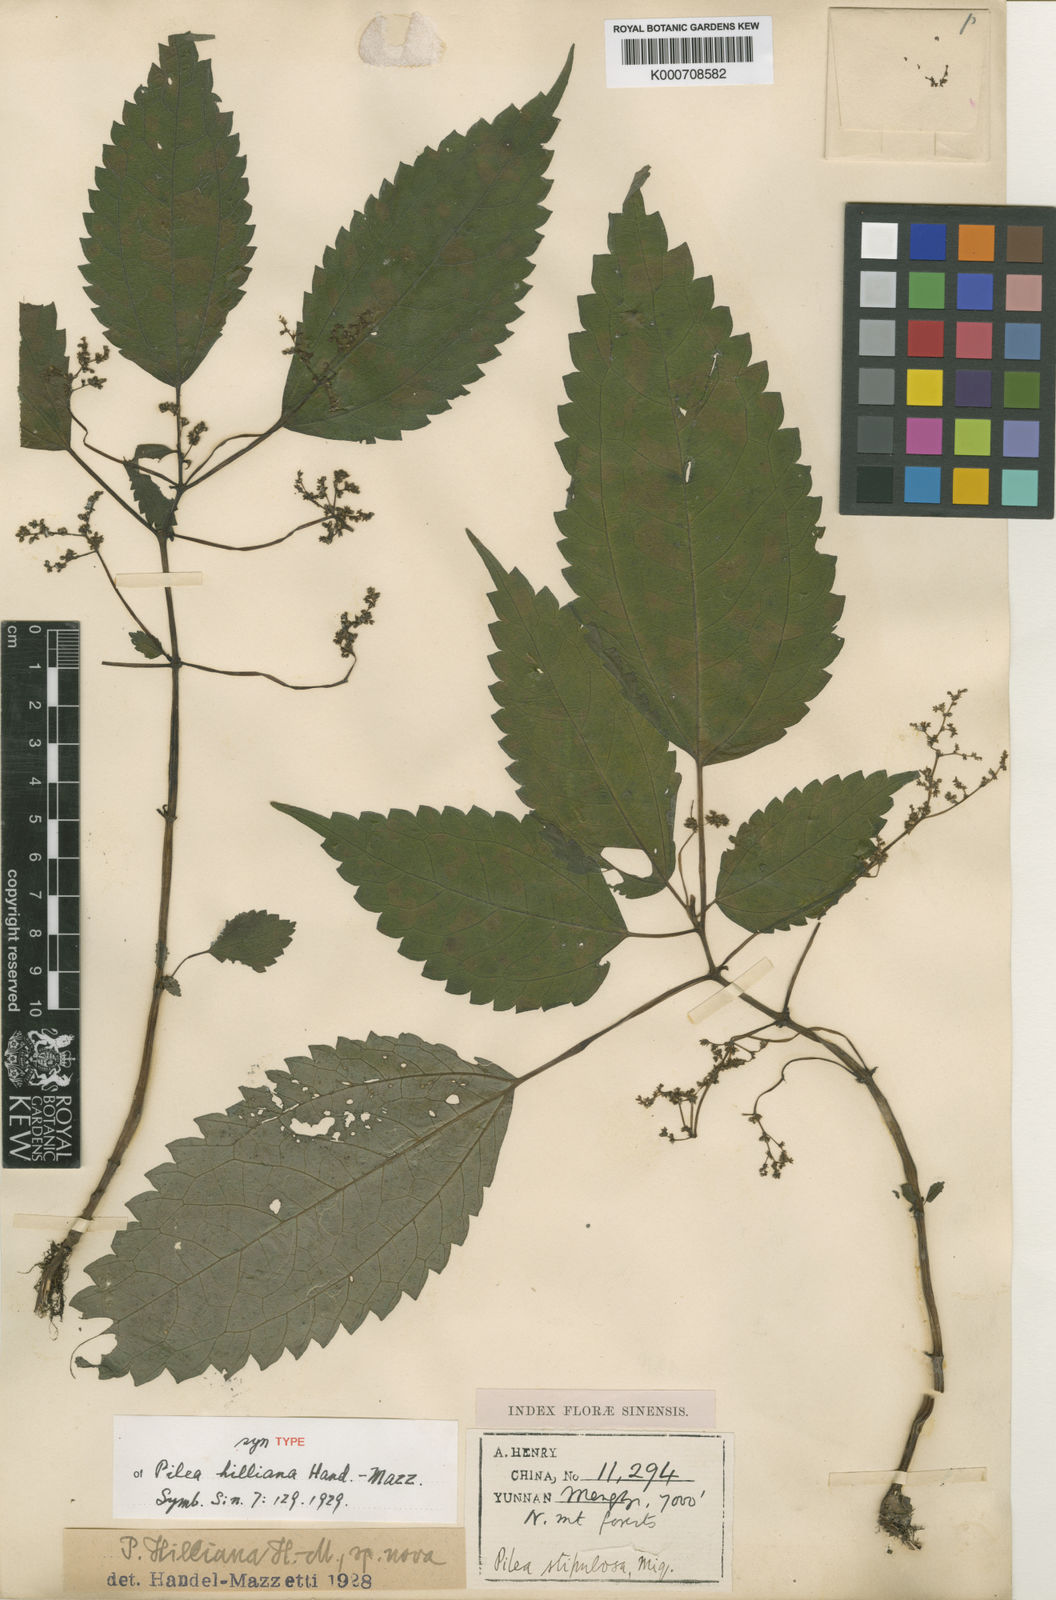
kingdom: Plantae
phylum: Tracheophyta
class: Magnoliopsida
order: Rosales
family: Urticaceae
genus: Achudemia
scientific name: Achudemia hilliana
